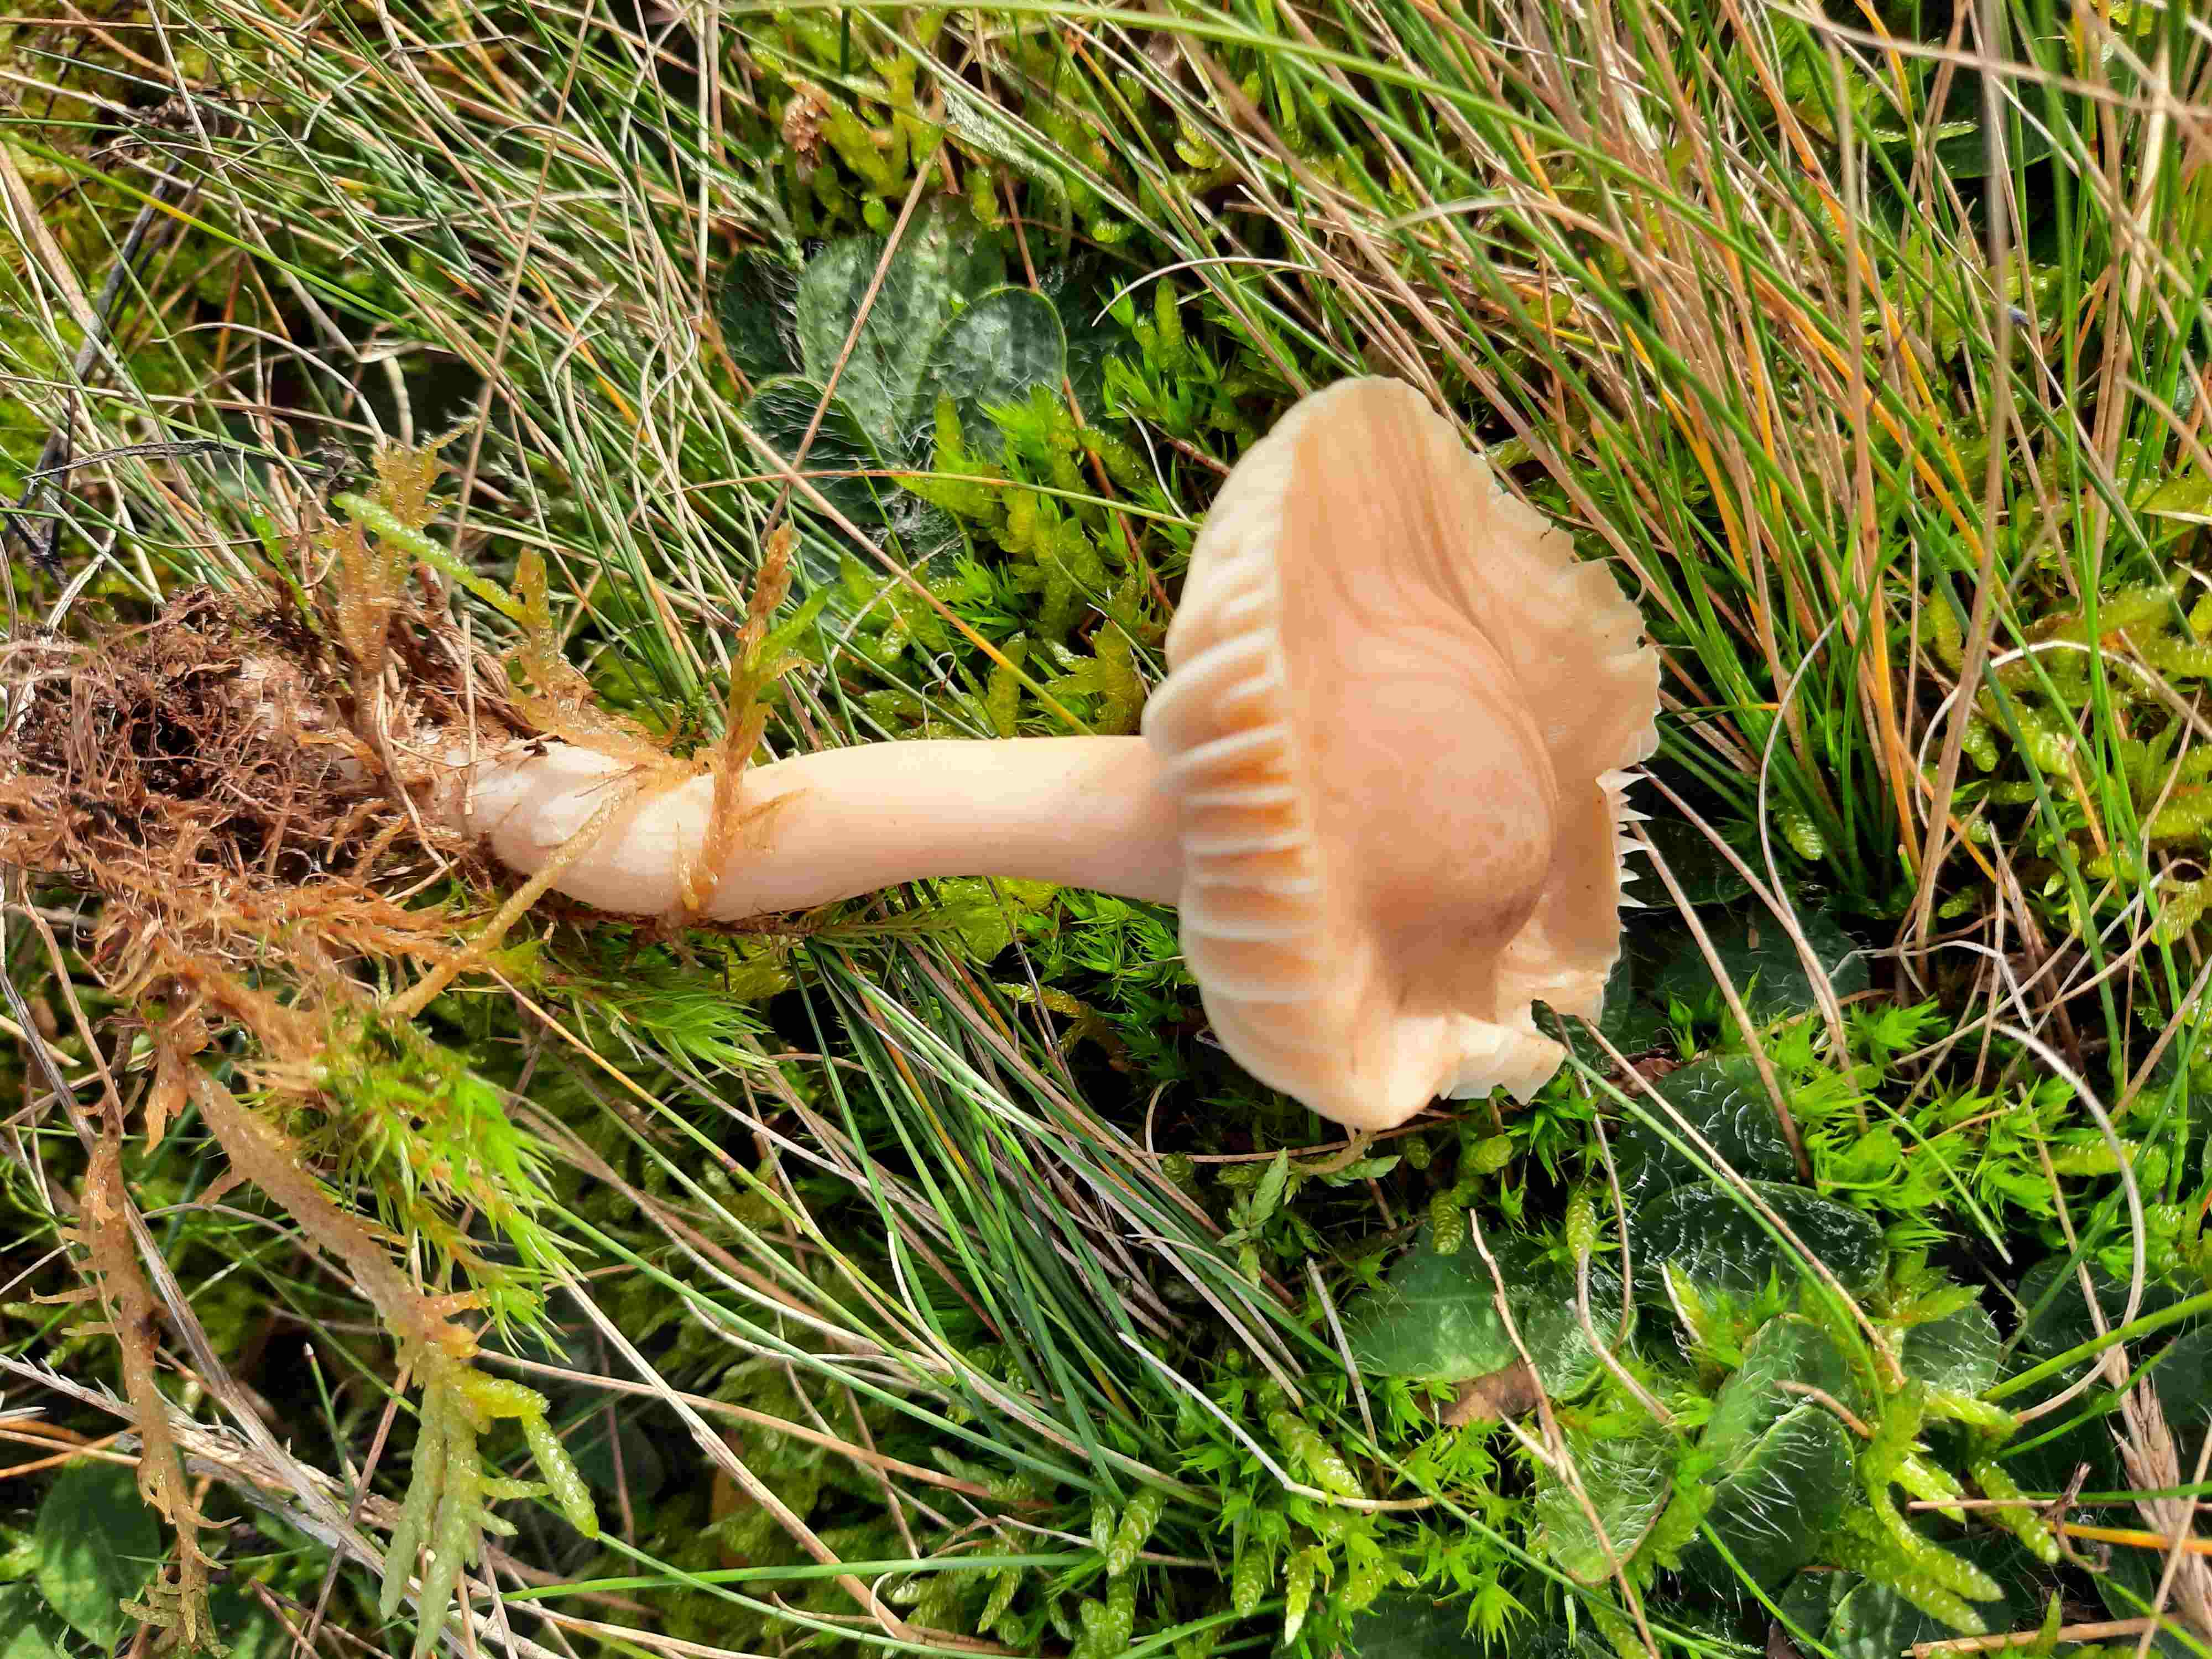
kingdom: Fungi
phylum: Basidiomycota
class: Agaricomycetes
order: Agaricales
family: Hygrophoraceae
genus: Cuphophyllus
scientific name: Cuphophyllus pratensis
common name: eng-vokshat
